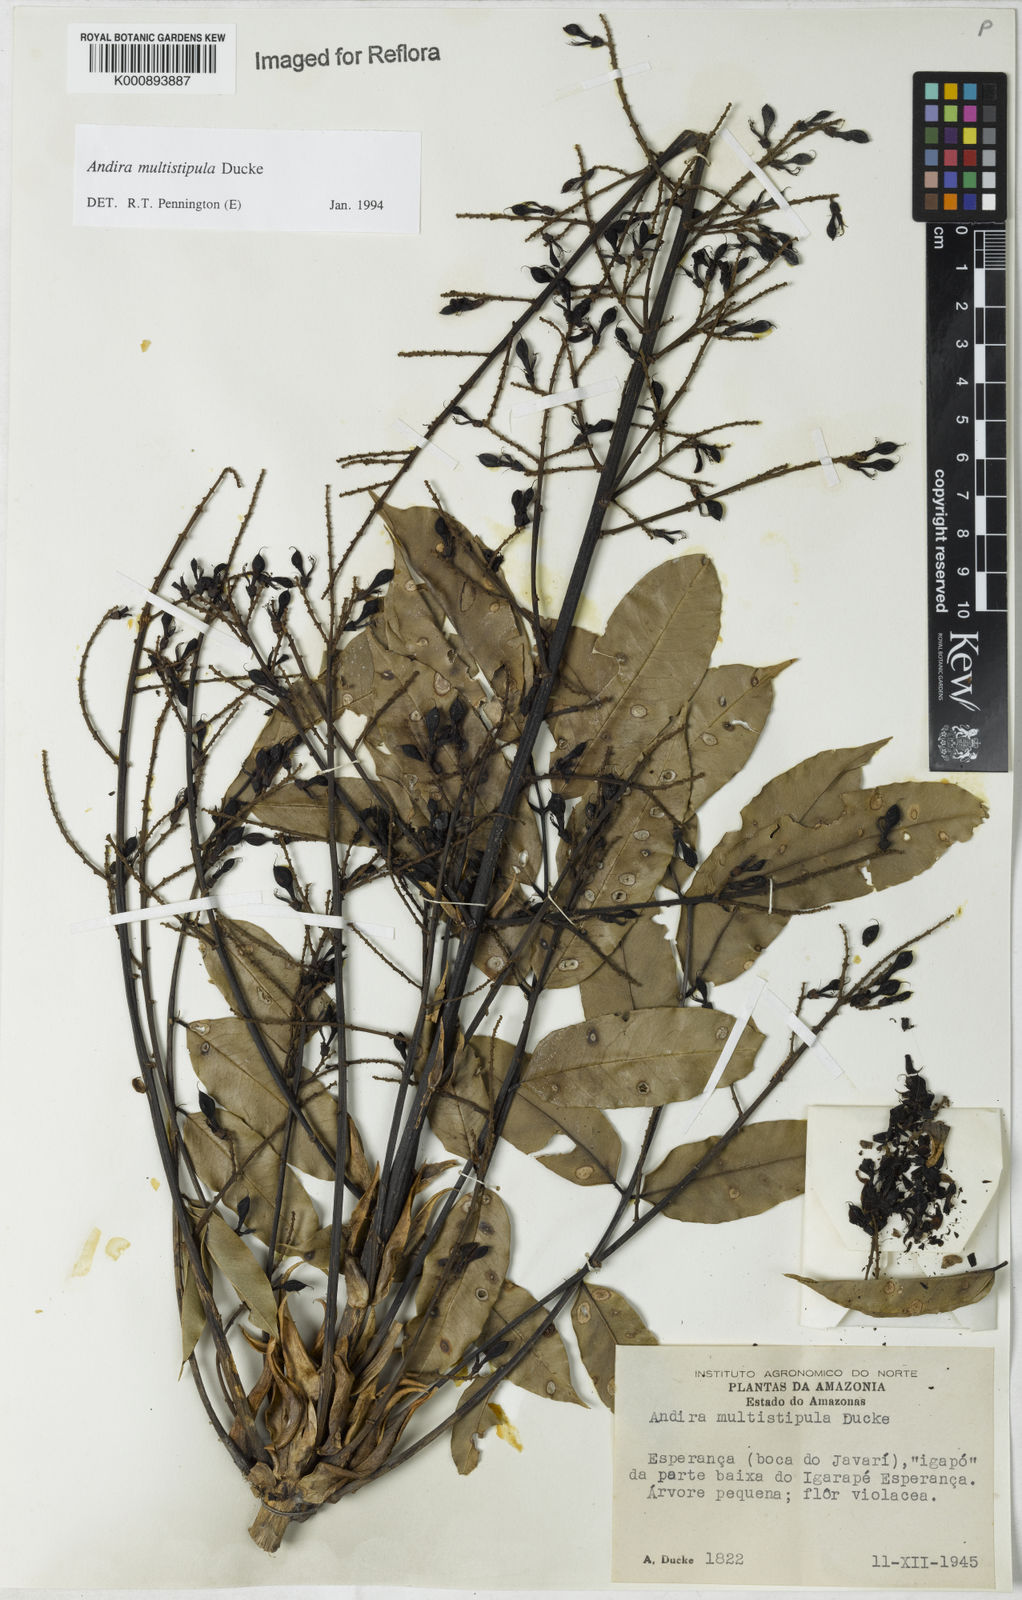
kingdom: Plantae
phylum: Tracheophyta
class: Magnoliopsida
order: Fabales
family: Fabaceae
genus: Andira
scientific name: Andira multistipula
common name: Pisho
